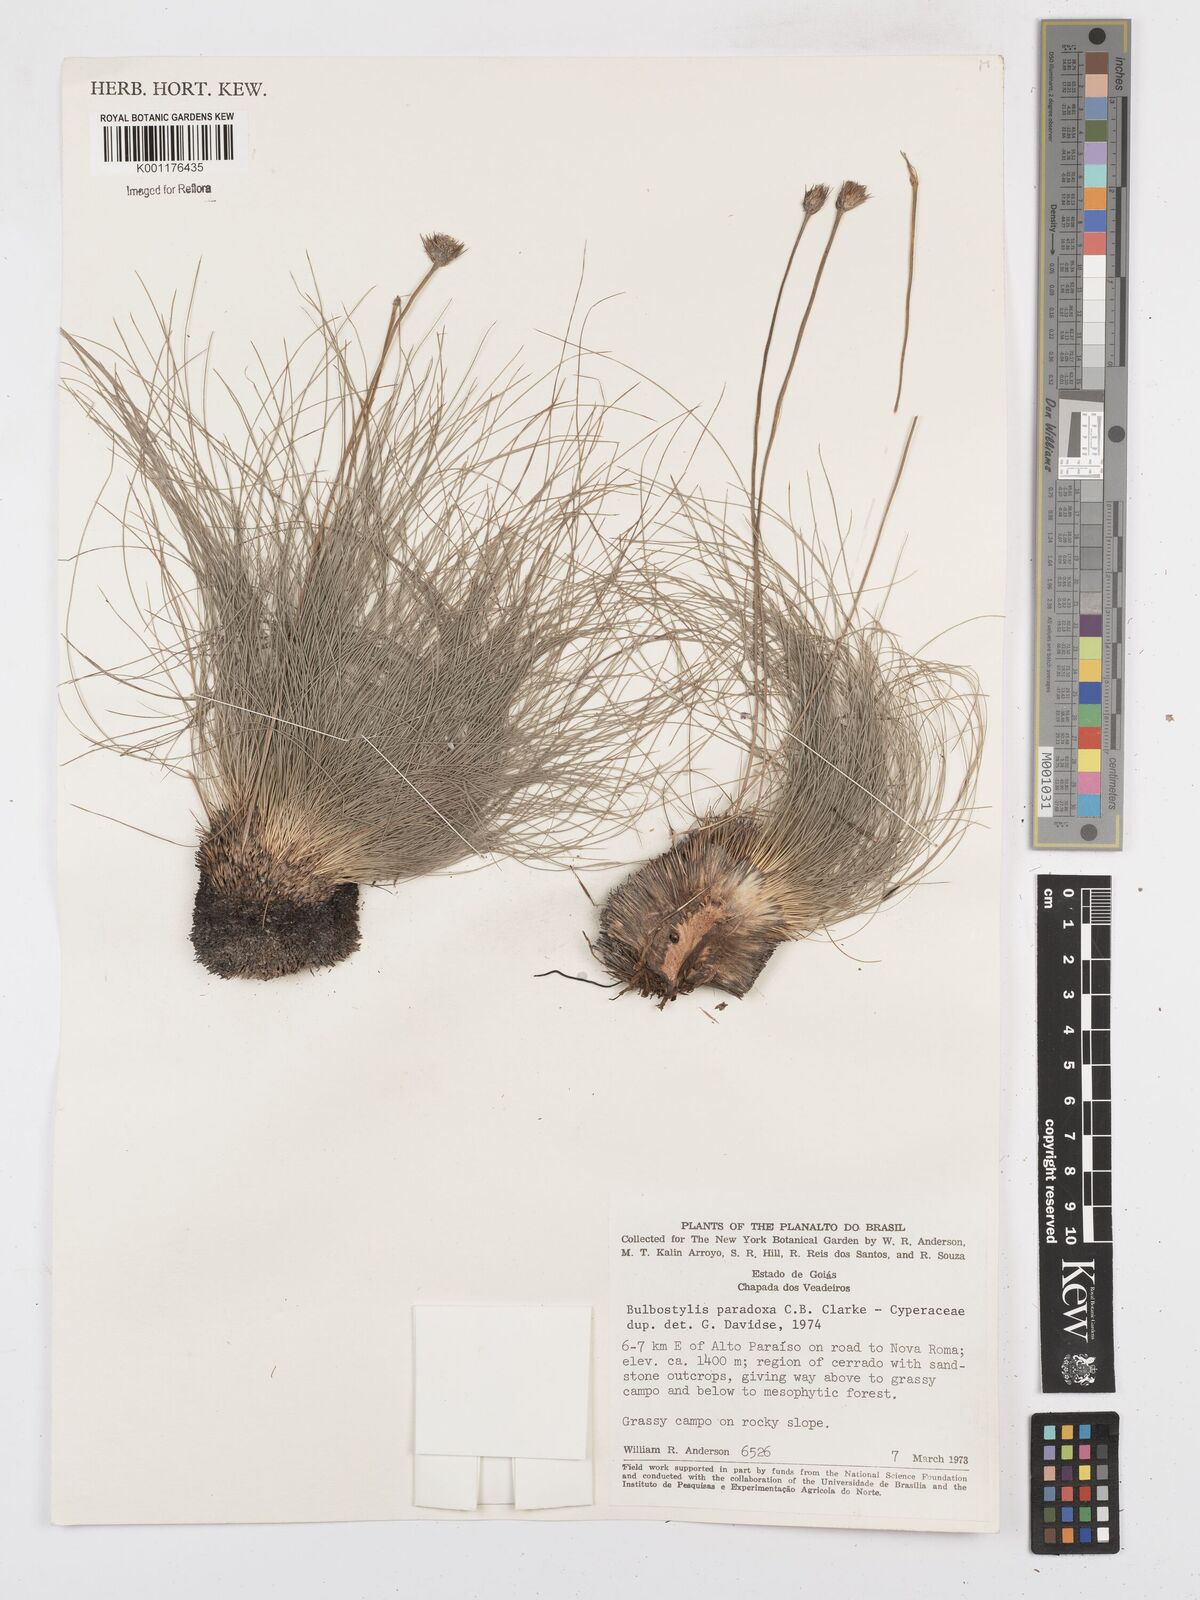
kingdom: Plantae
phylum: Tracheophyta
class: Liliopsida
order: Poales
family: Cyperaceae
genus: Bulbostylis
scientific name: Bulbostylis paradoxa
